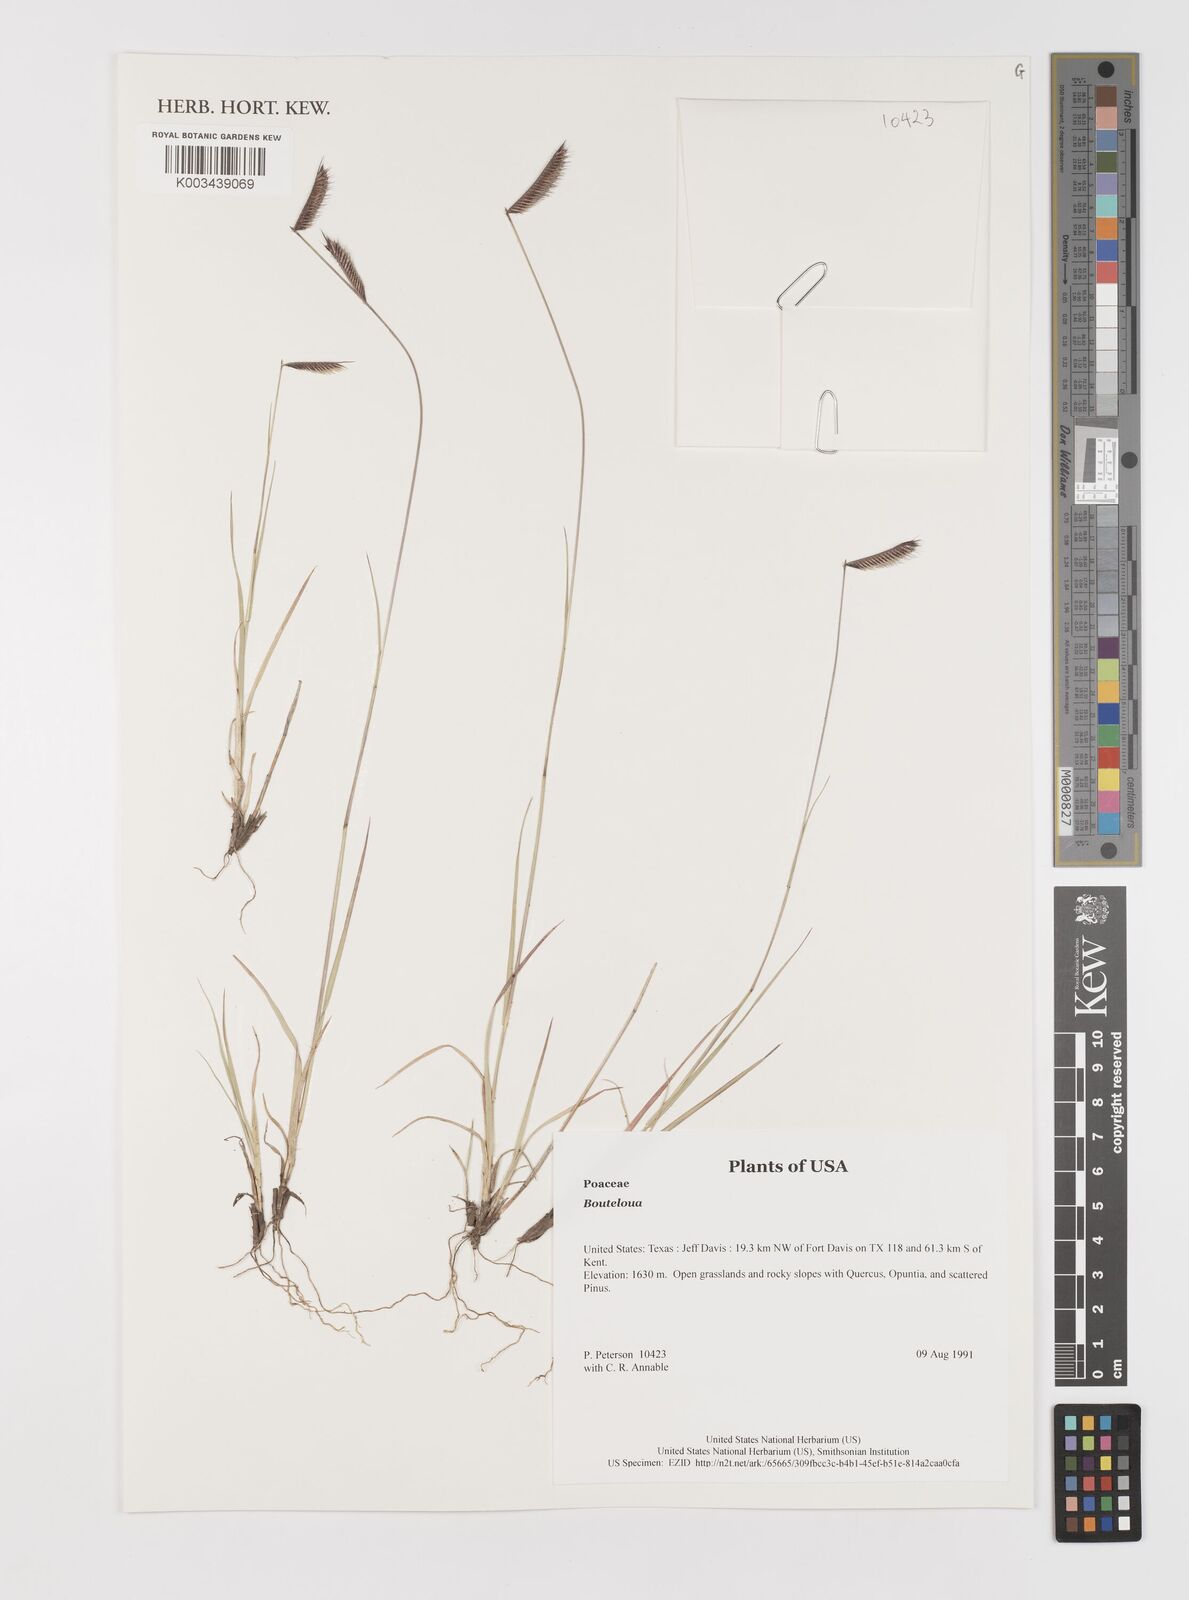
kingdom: Plantae
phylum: Tracheophyta
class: Liliopsida
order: Poales
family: Poaceae
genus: Bouteloua
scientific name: Bouteloua
